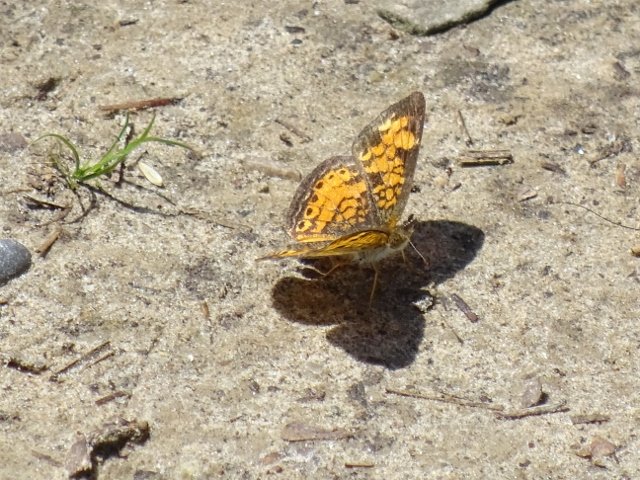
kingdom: Animalia
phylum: Arthropoda
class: Insecta
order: Lepidoptera
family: Nymphalidae
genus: Phyciodes
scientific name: Phyciodes tharos
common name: Pearl Crescent
